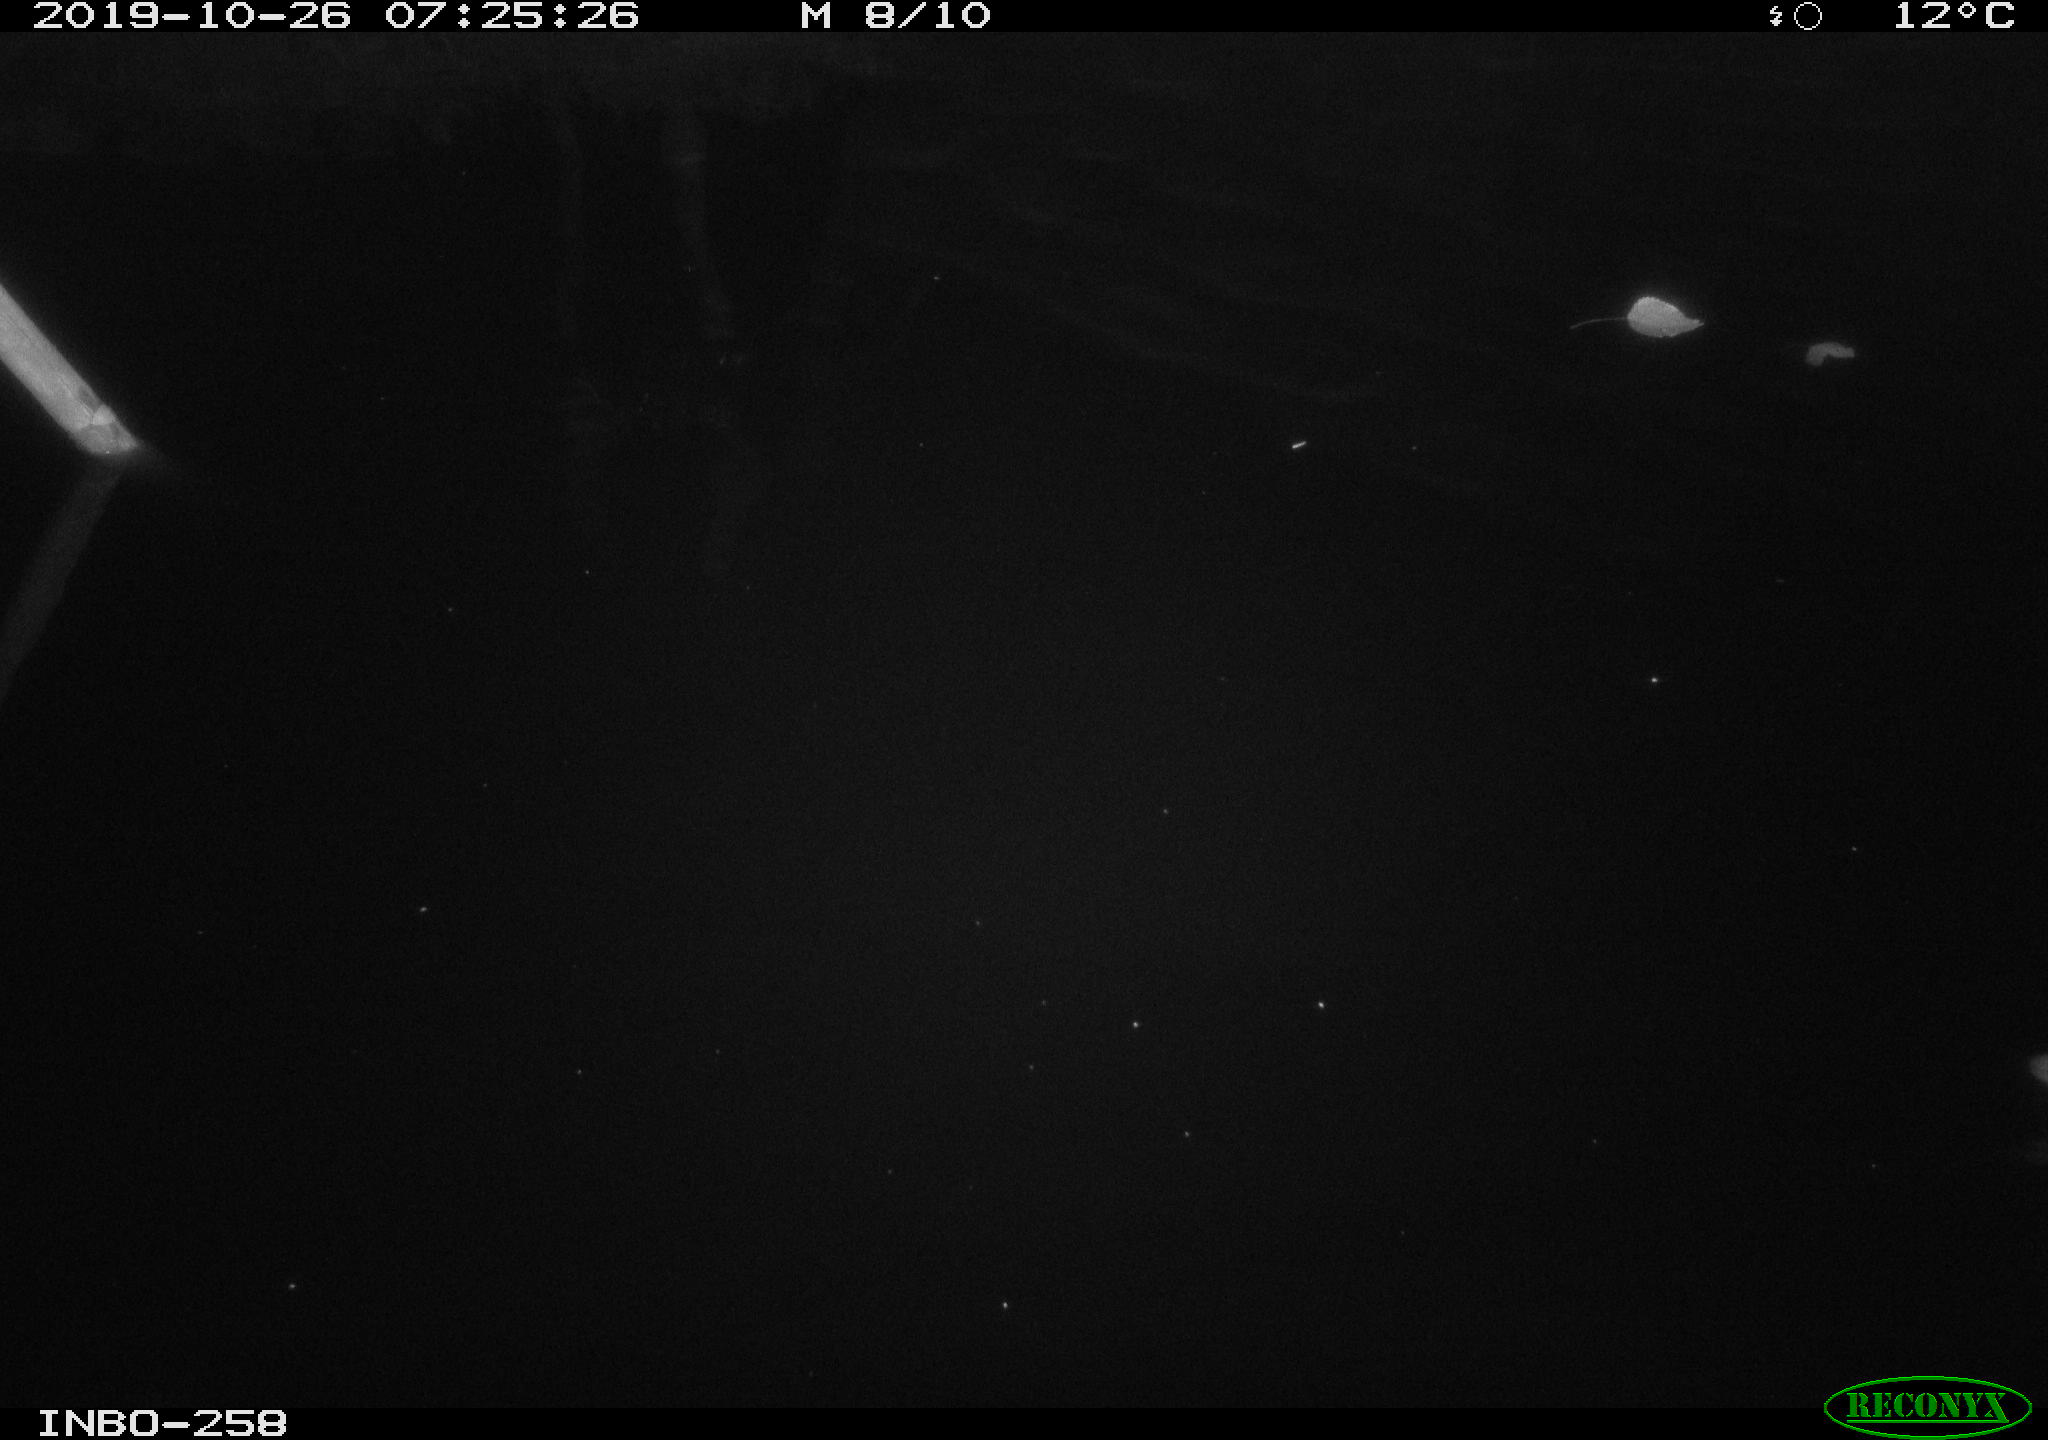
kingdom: Animalia
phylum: Chordata
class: Aves
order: Gruiformes
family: Rallidae
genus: Gallinula
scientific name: Gallinula chloropus
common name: Common moorhen
